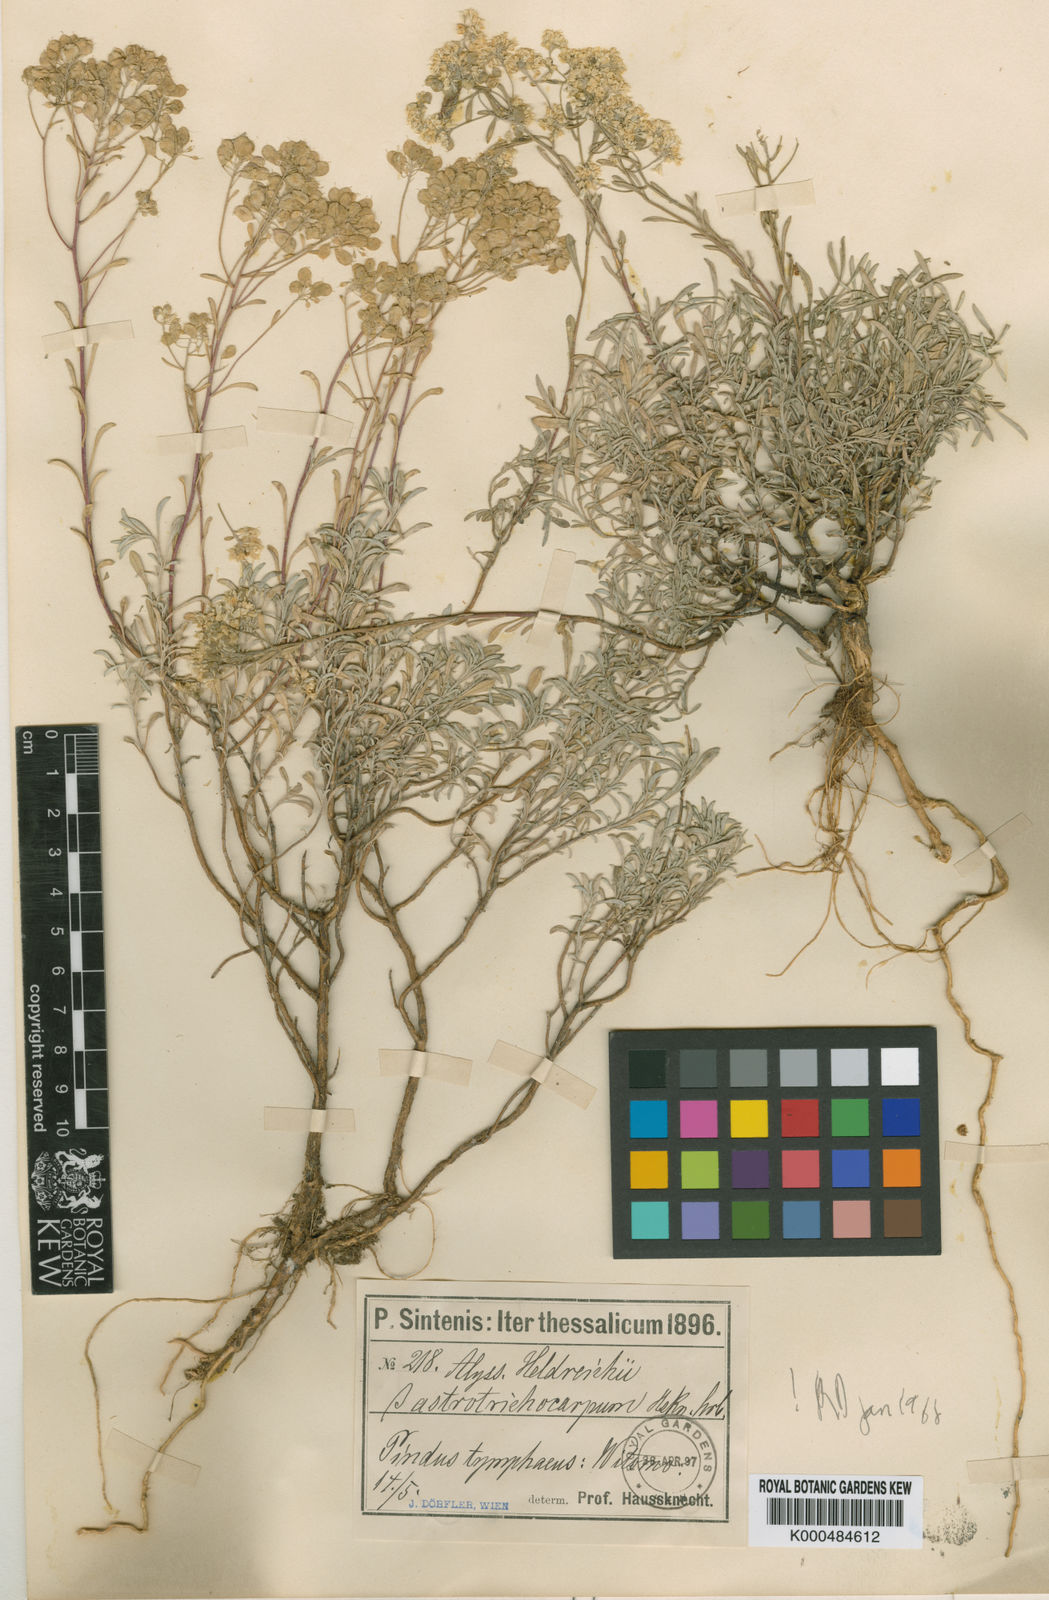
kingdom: Plantae
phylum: Tracheophyta
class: Magnoliopsida
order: Brassicales
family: Brassicaceae
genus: Odontarrhena
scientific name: Odontarrhena heldreichii
